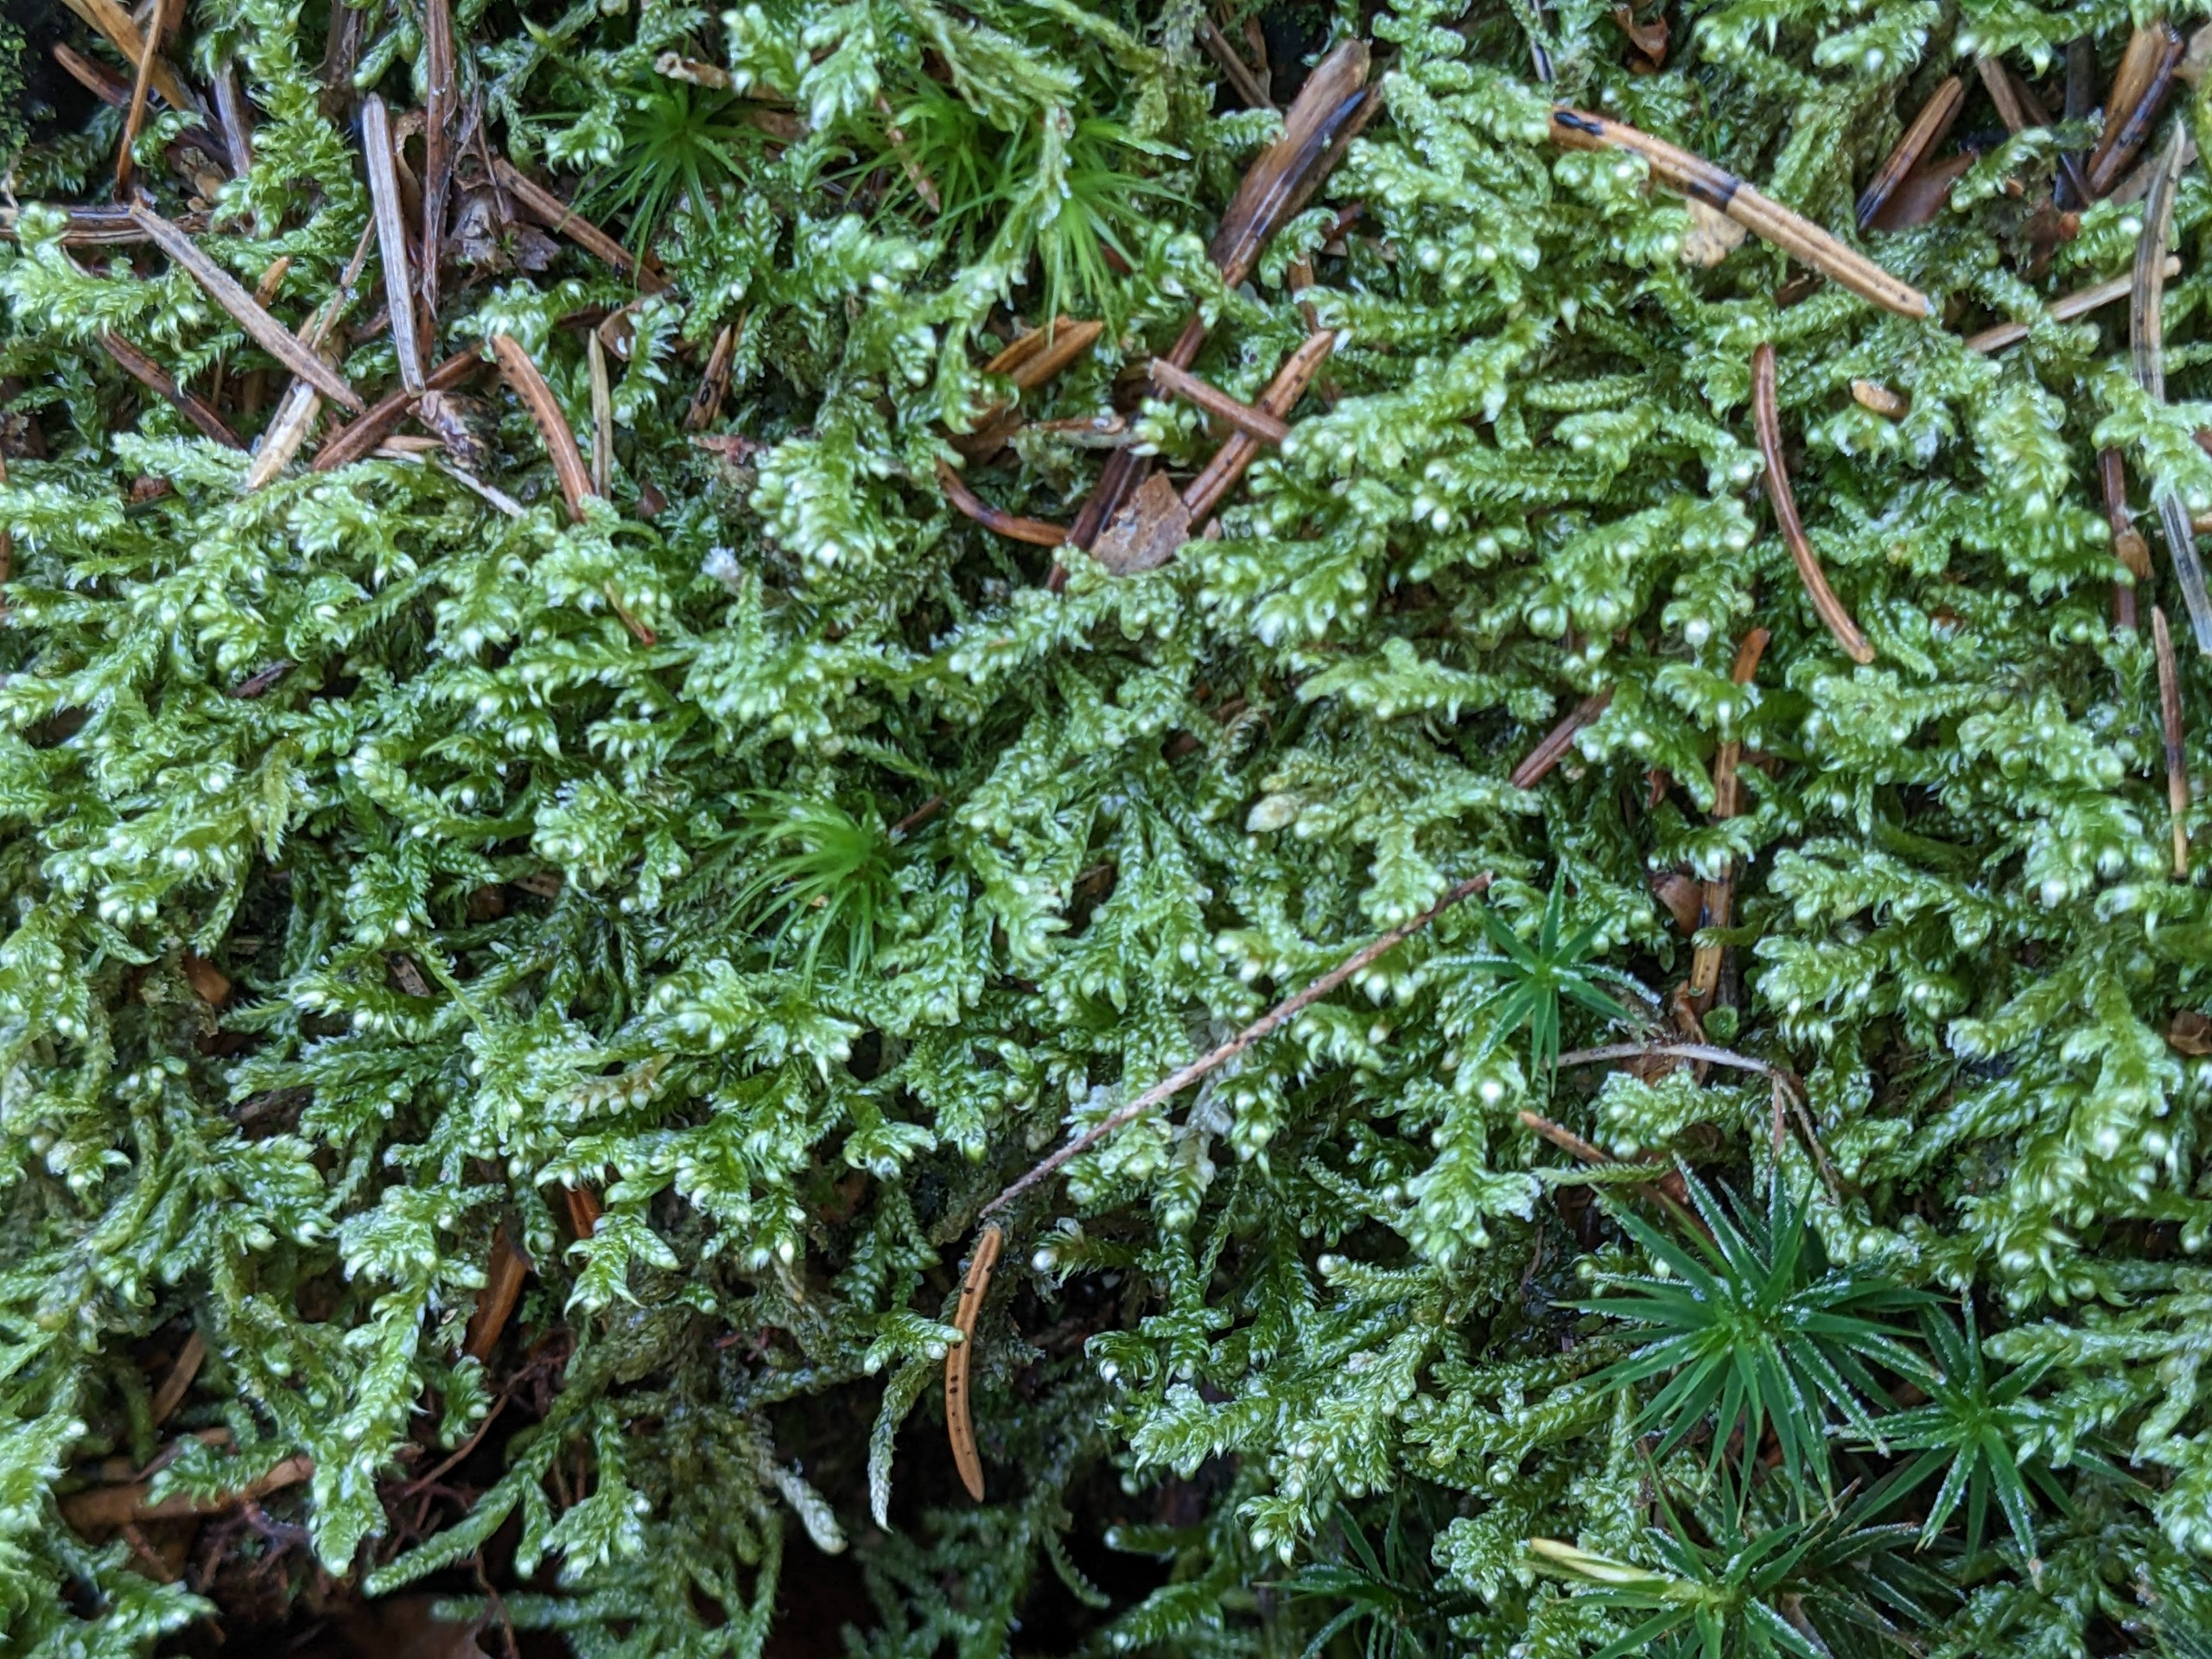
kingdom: Plantae
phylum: Bryophyta
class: Bryopsida
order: Hypnales
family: Hypnaceae
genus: Hypnum
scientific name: Hypnum jutlandicum
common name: Hede-cypresmos
